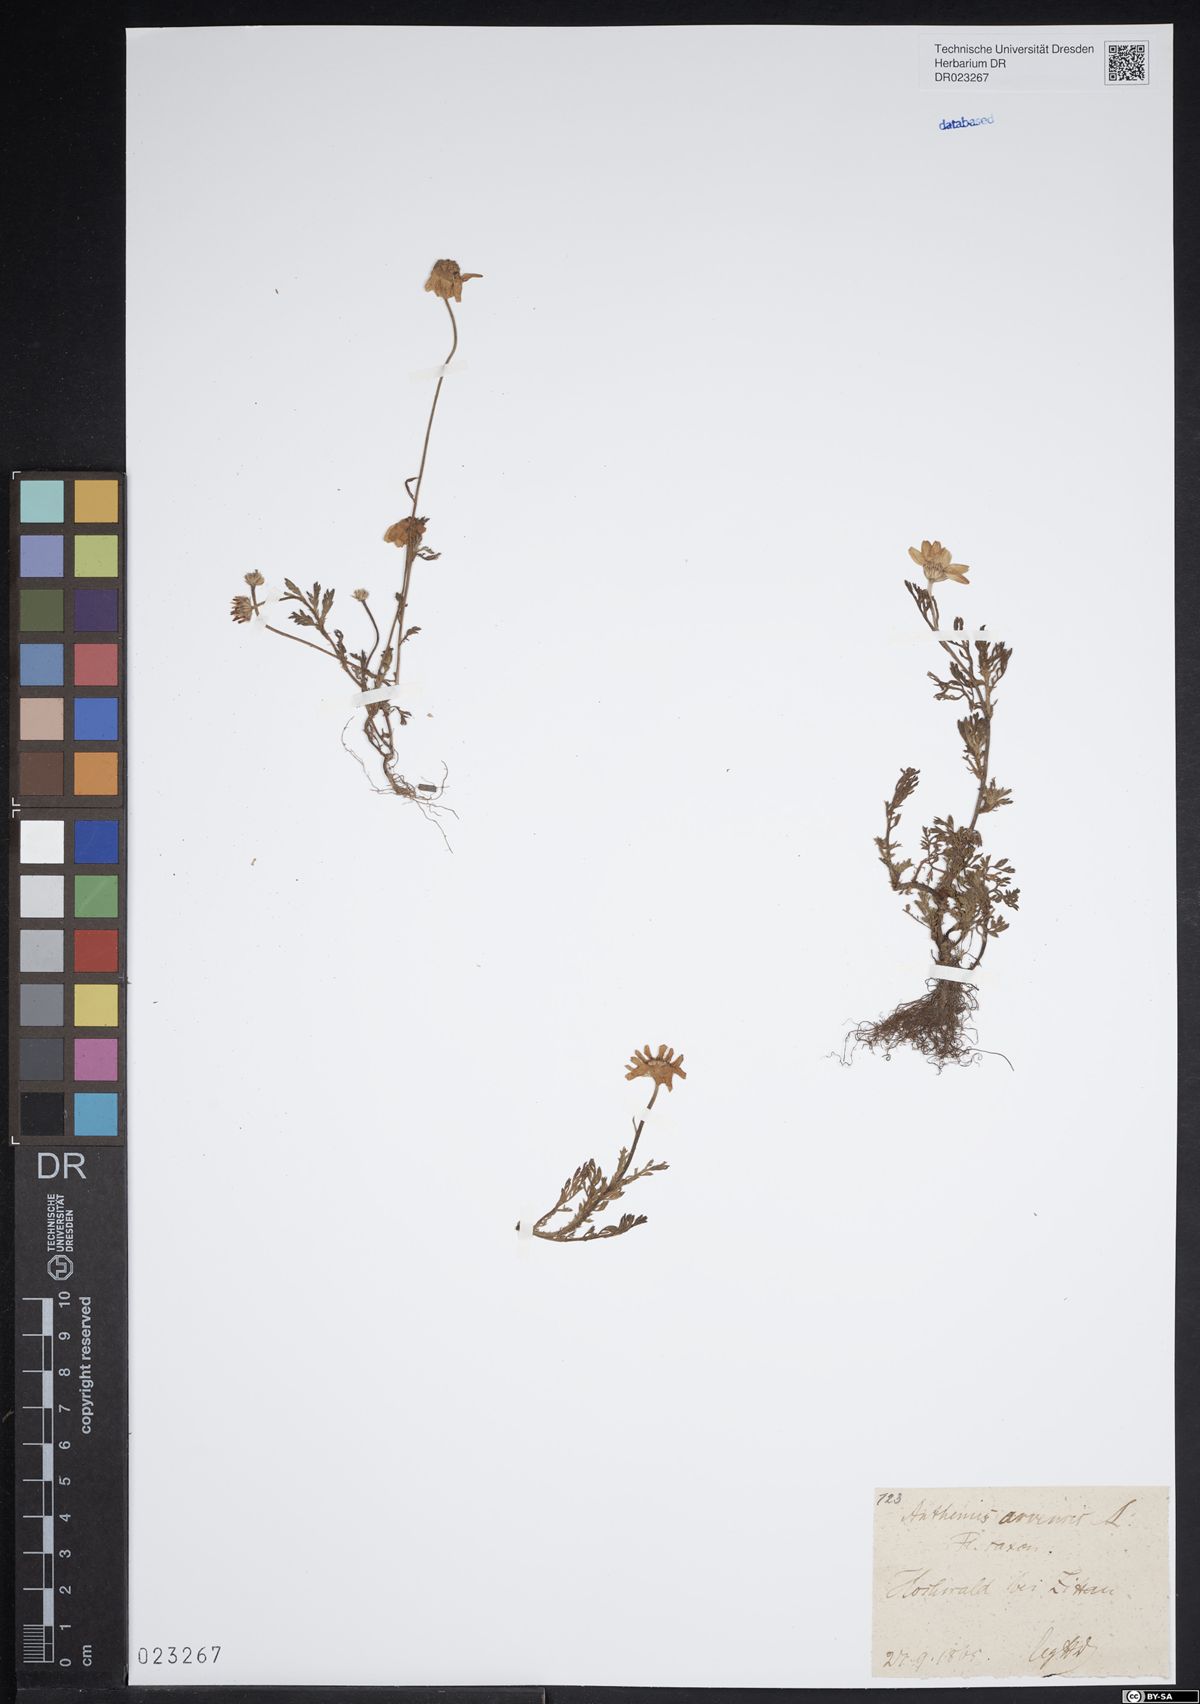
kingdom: Plantae
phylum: Tracheophyta
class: Magnoliopsida
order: Asterales
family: Asteraceae
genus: Anthemis
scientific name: Anthemis arvensis
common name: Corn chamomile
